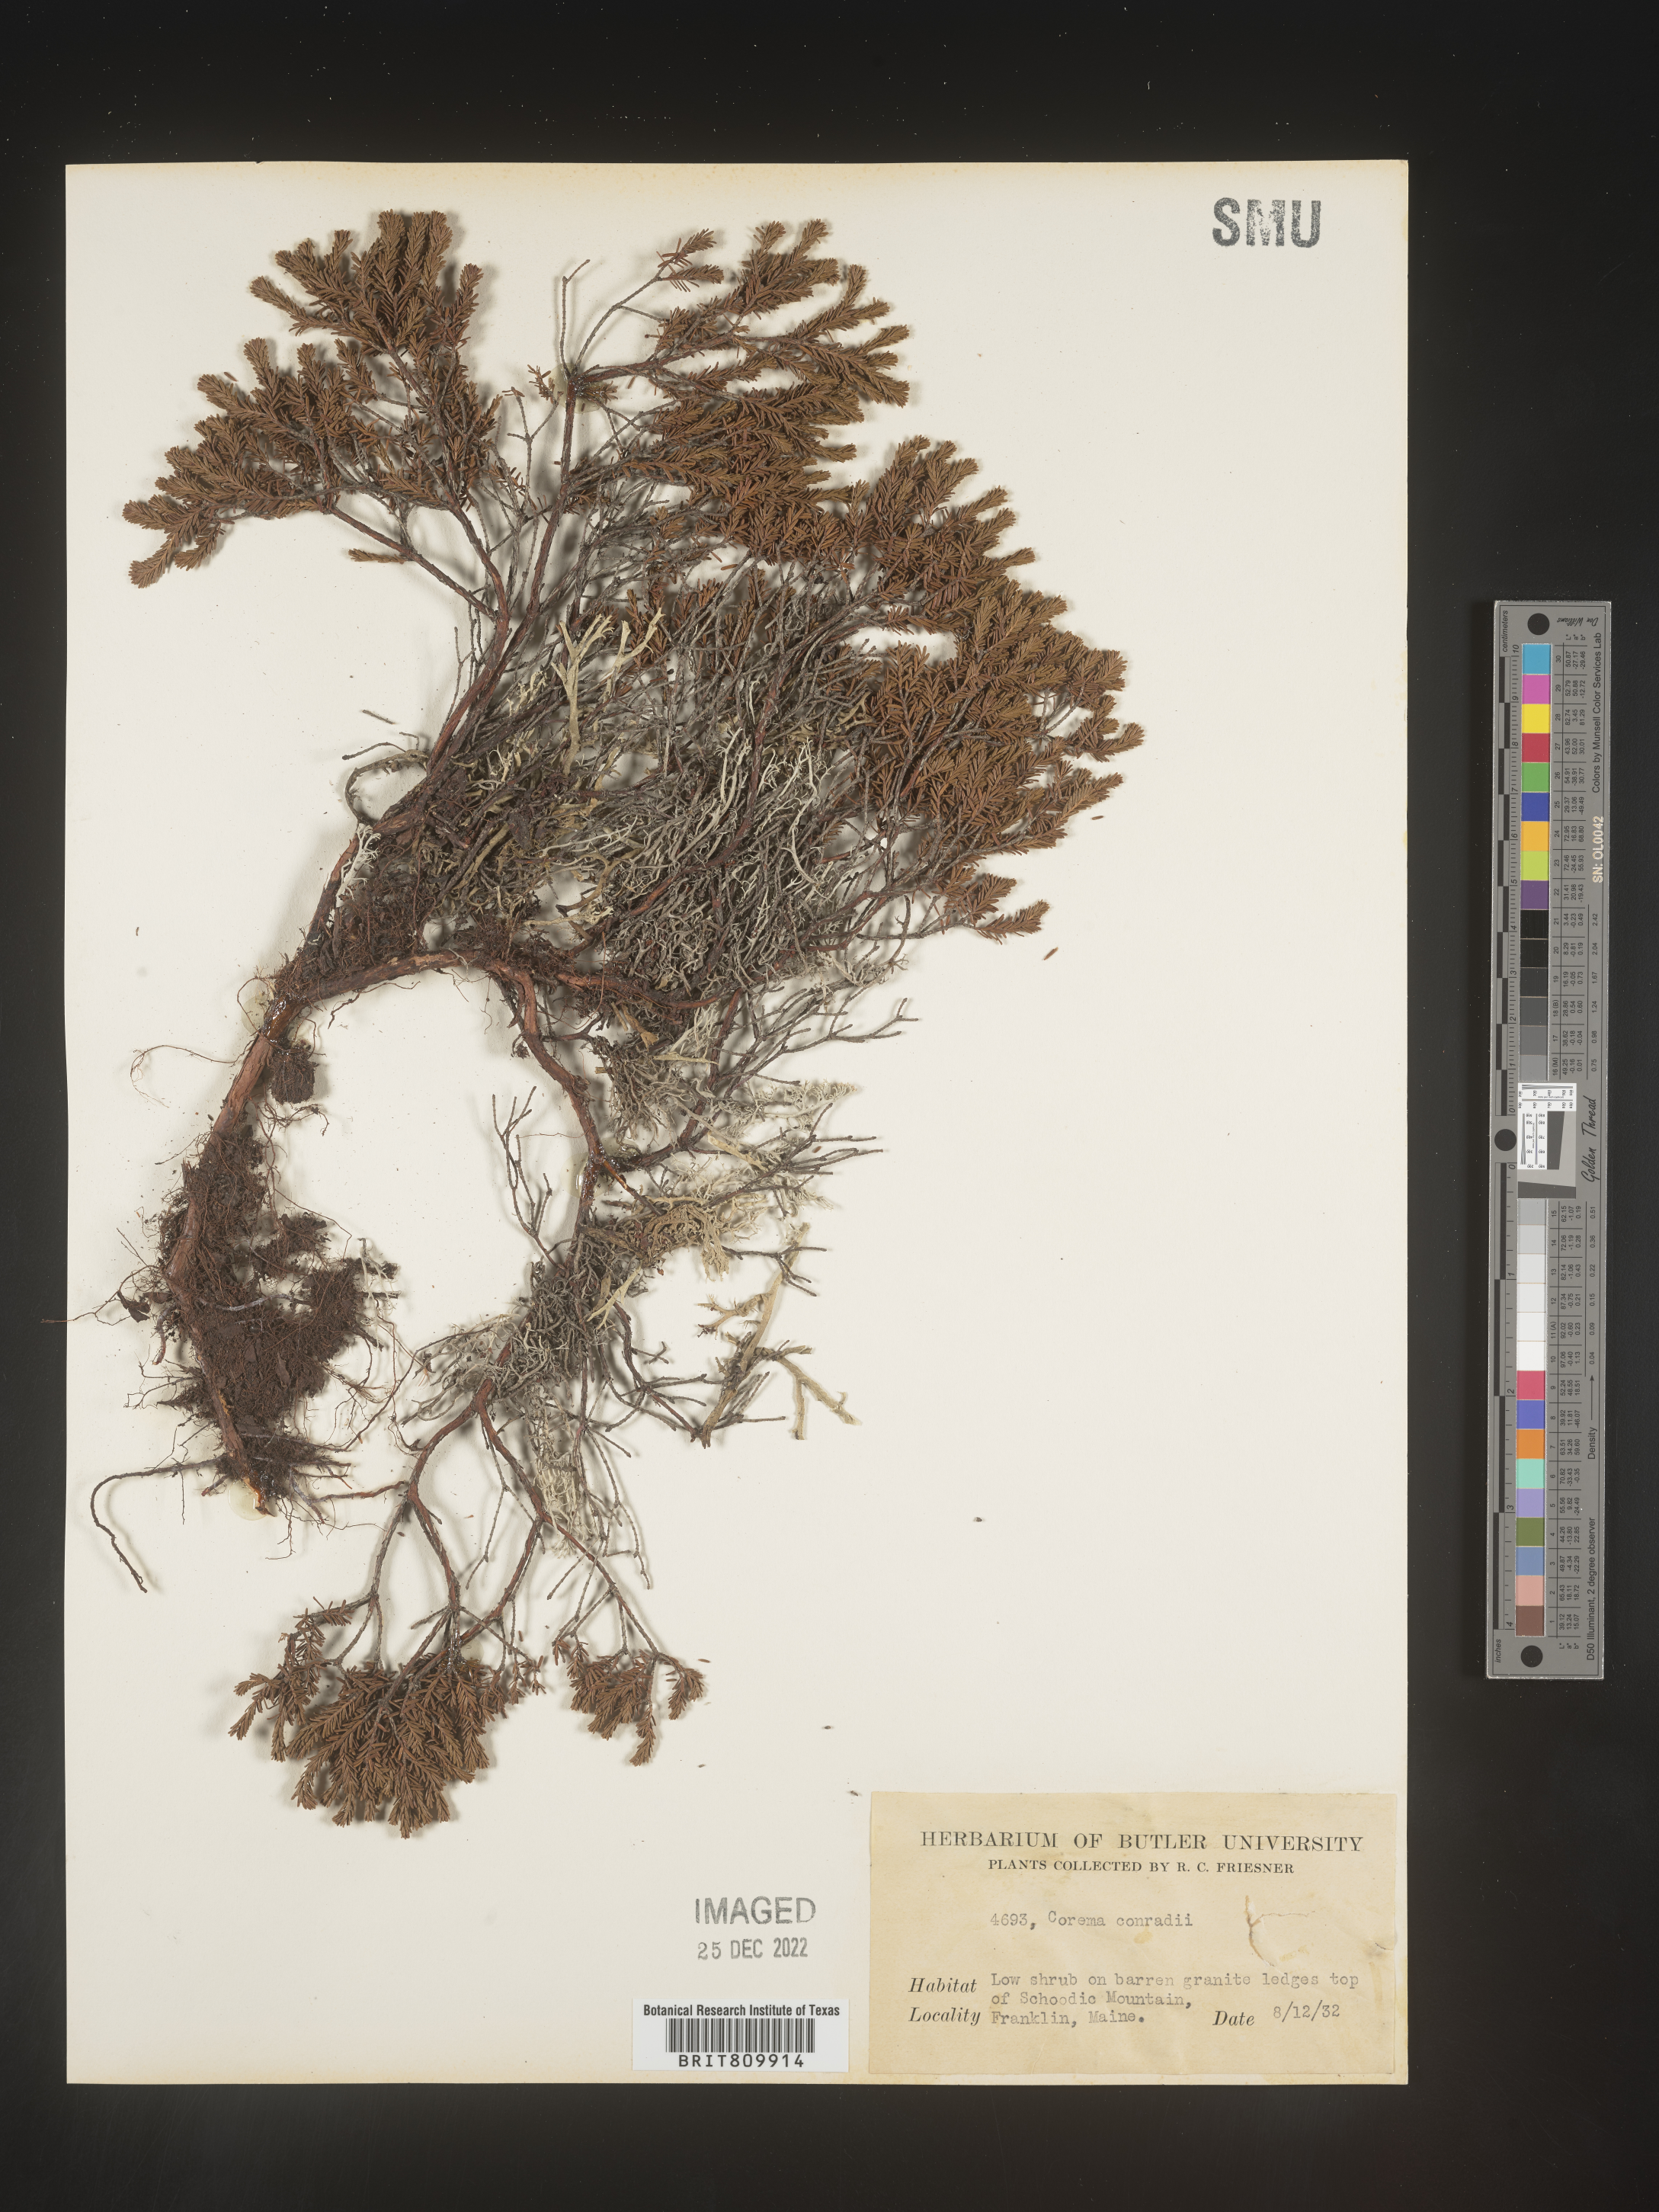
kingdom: Plantae
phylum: Tracheophyta
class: Magnoliopsida
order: Ericales
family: Ericaceae
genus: Corema
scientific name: Corema
